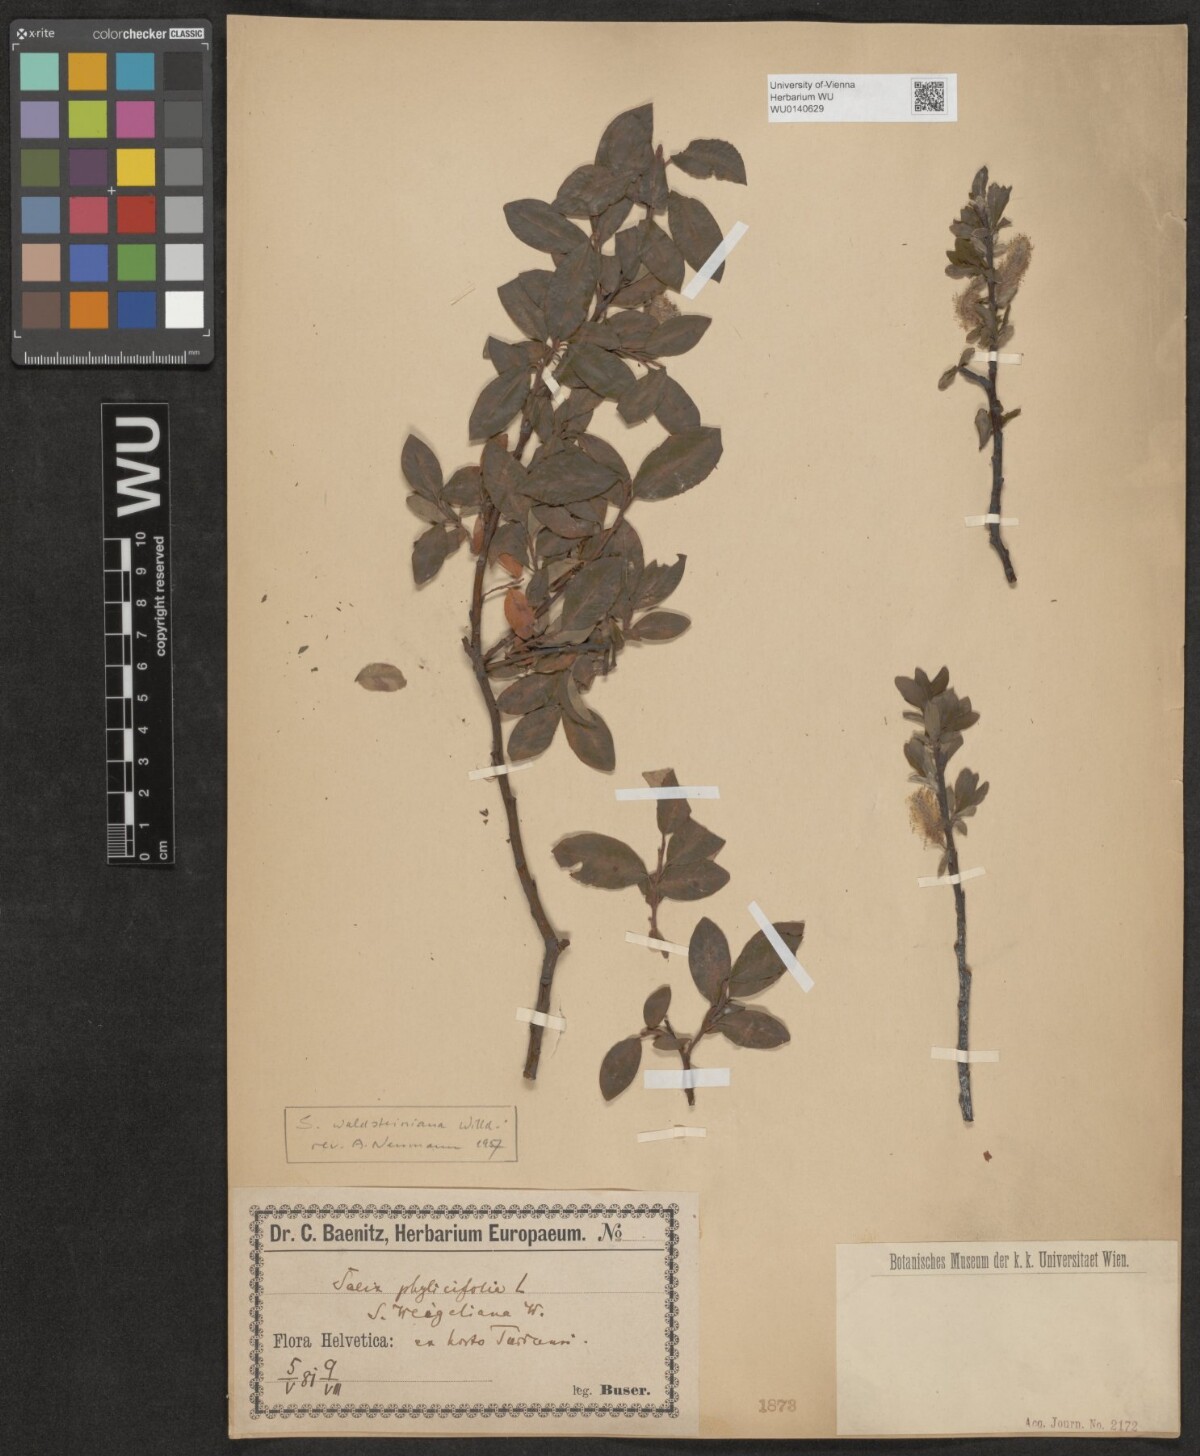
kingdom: Plantae
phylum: Tracheophyta
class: Magnoliopsida
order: Malpighiales
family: Salicaceae
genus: Salix
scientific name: Salix waldsteiniana
